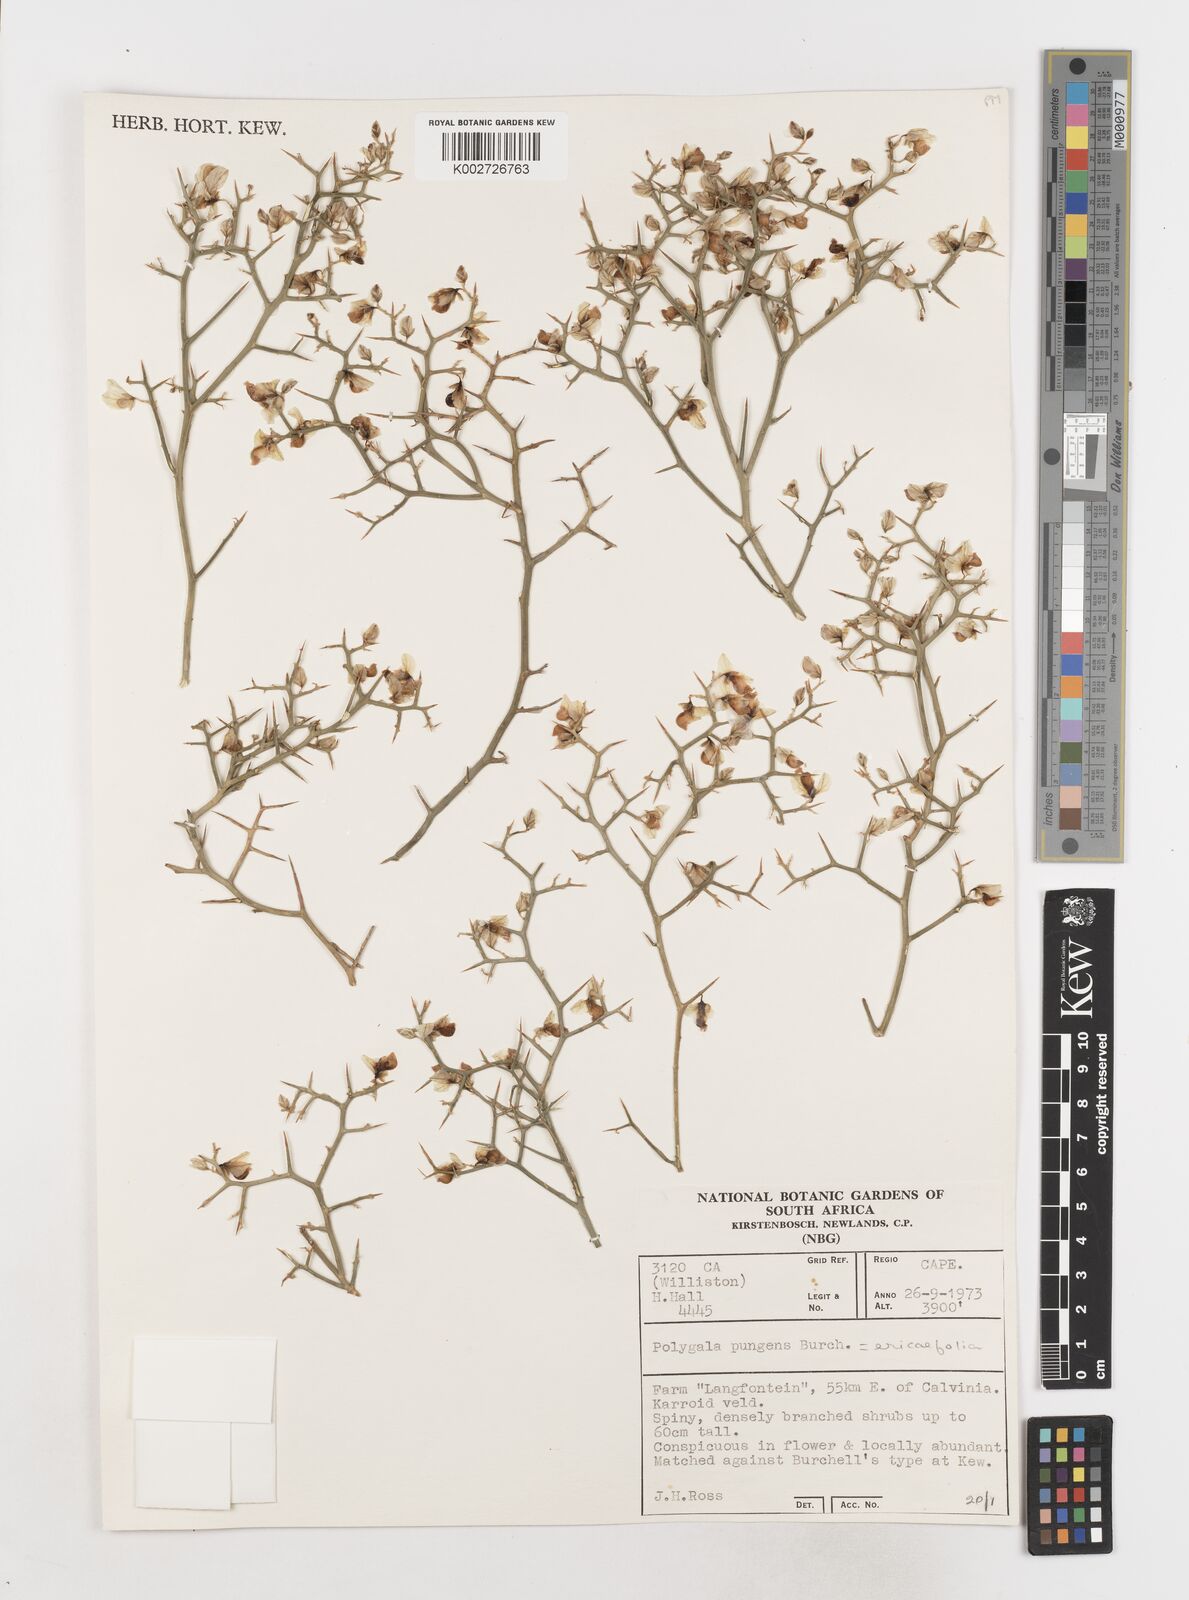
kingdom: Plantae
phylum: Tracheophyta
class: Magnoliopsida
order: Fabales
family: Polygalaceae
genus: Polygala
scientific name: Polygala pungens
